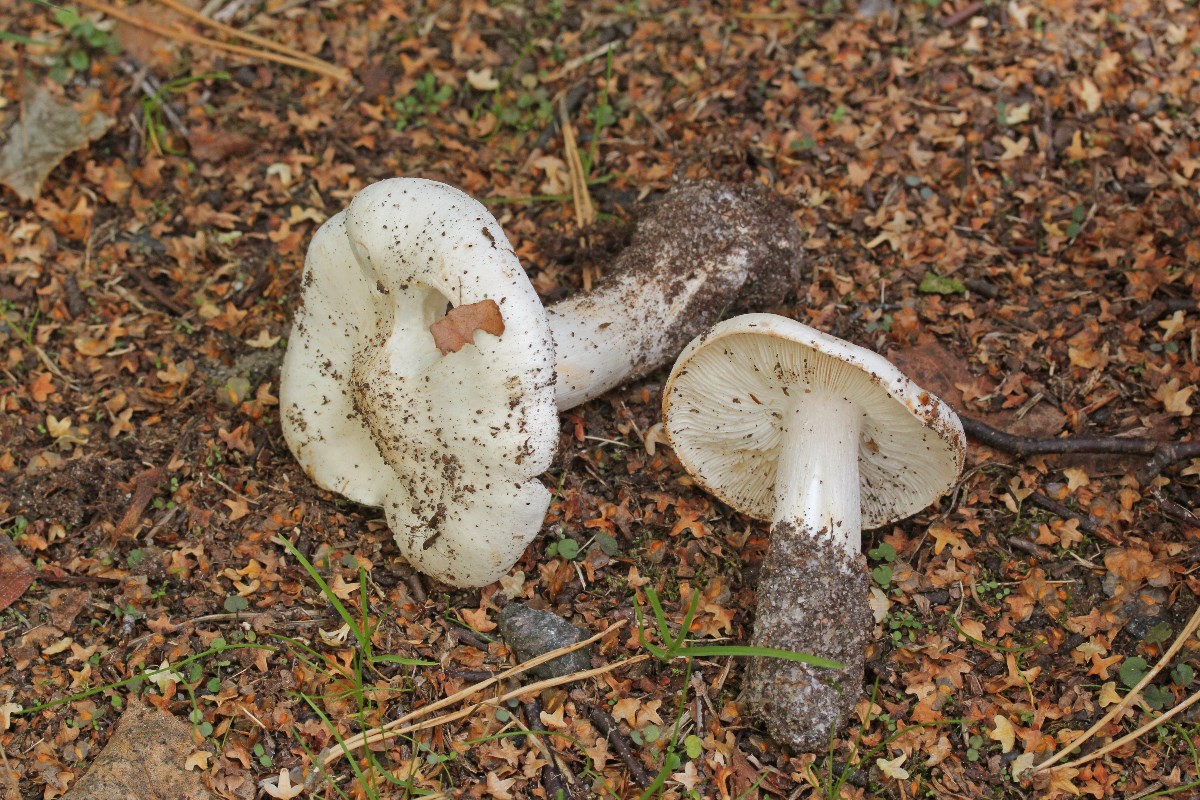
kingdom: Fungi
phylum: Basidiomycota
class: Agaricomycetes
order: Agaricales
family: Tricholomataceae
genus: Tricholoma
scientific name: Tricholoma columbetta
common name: silke-ridderhat
